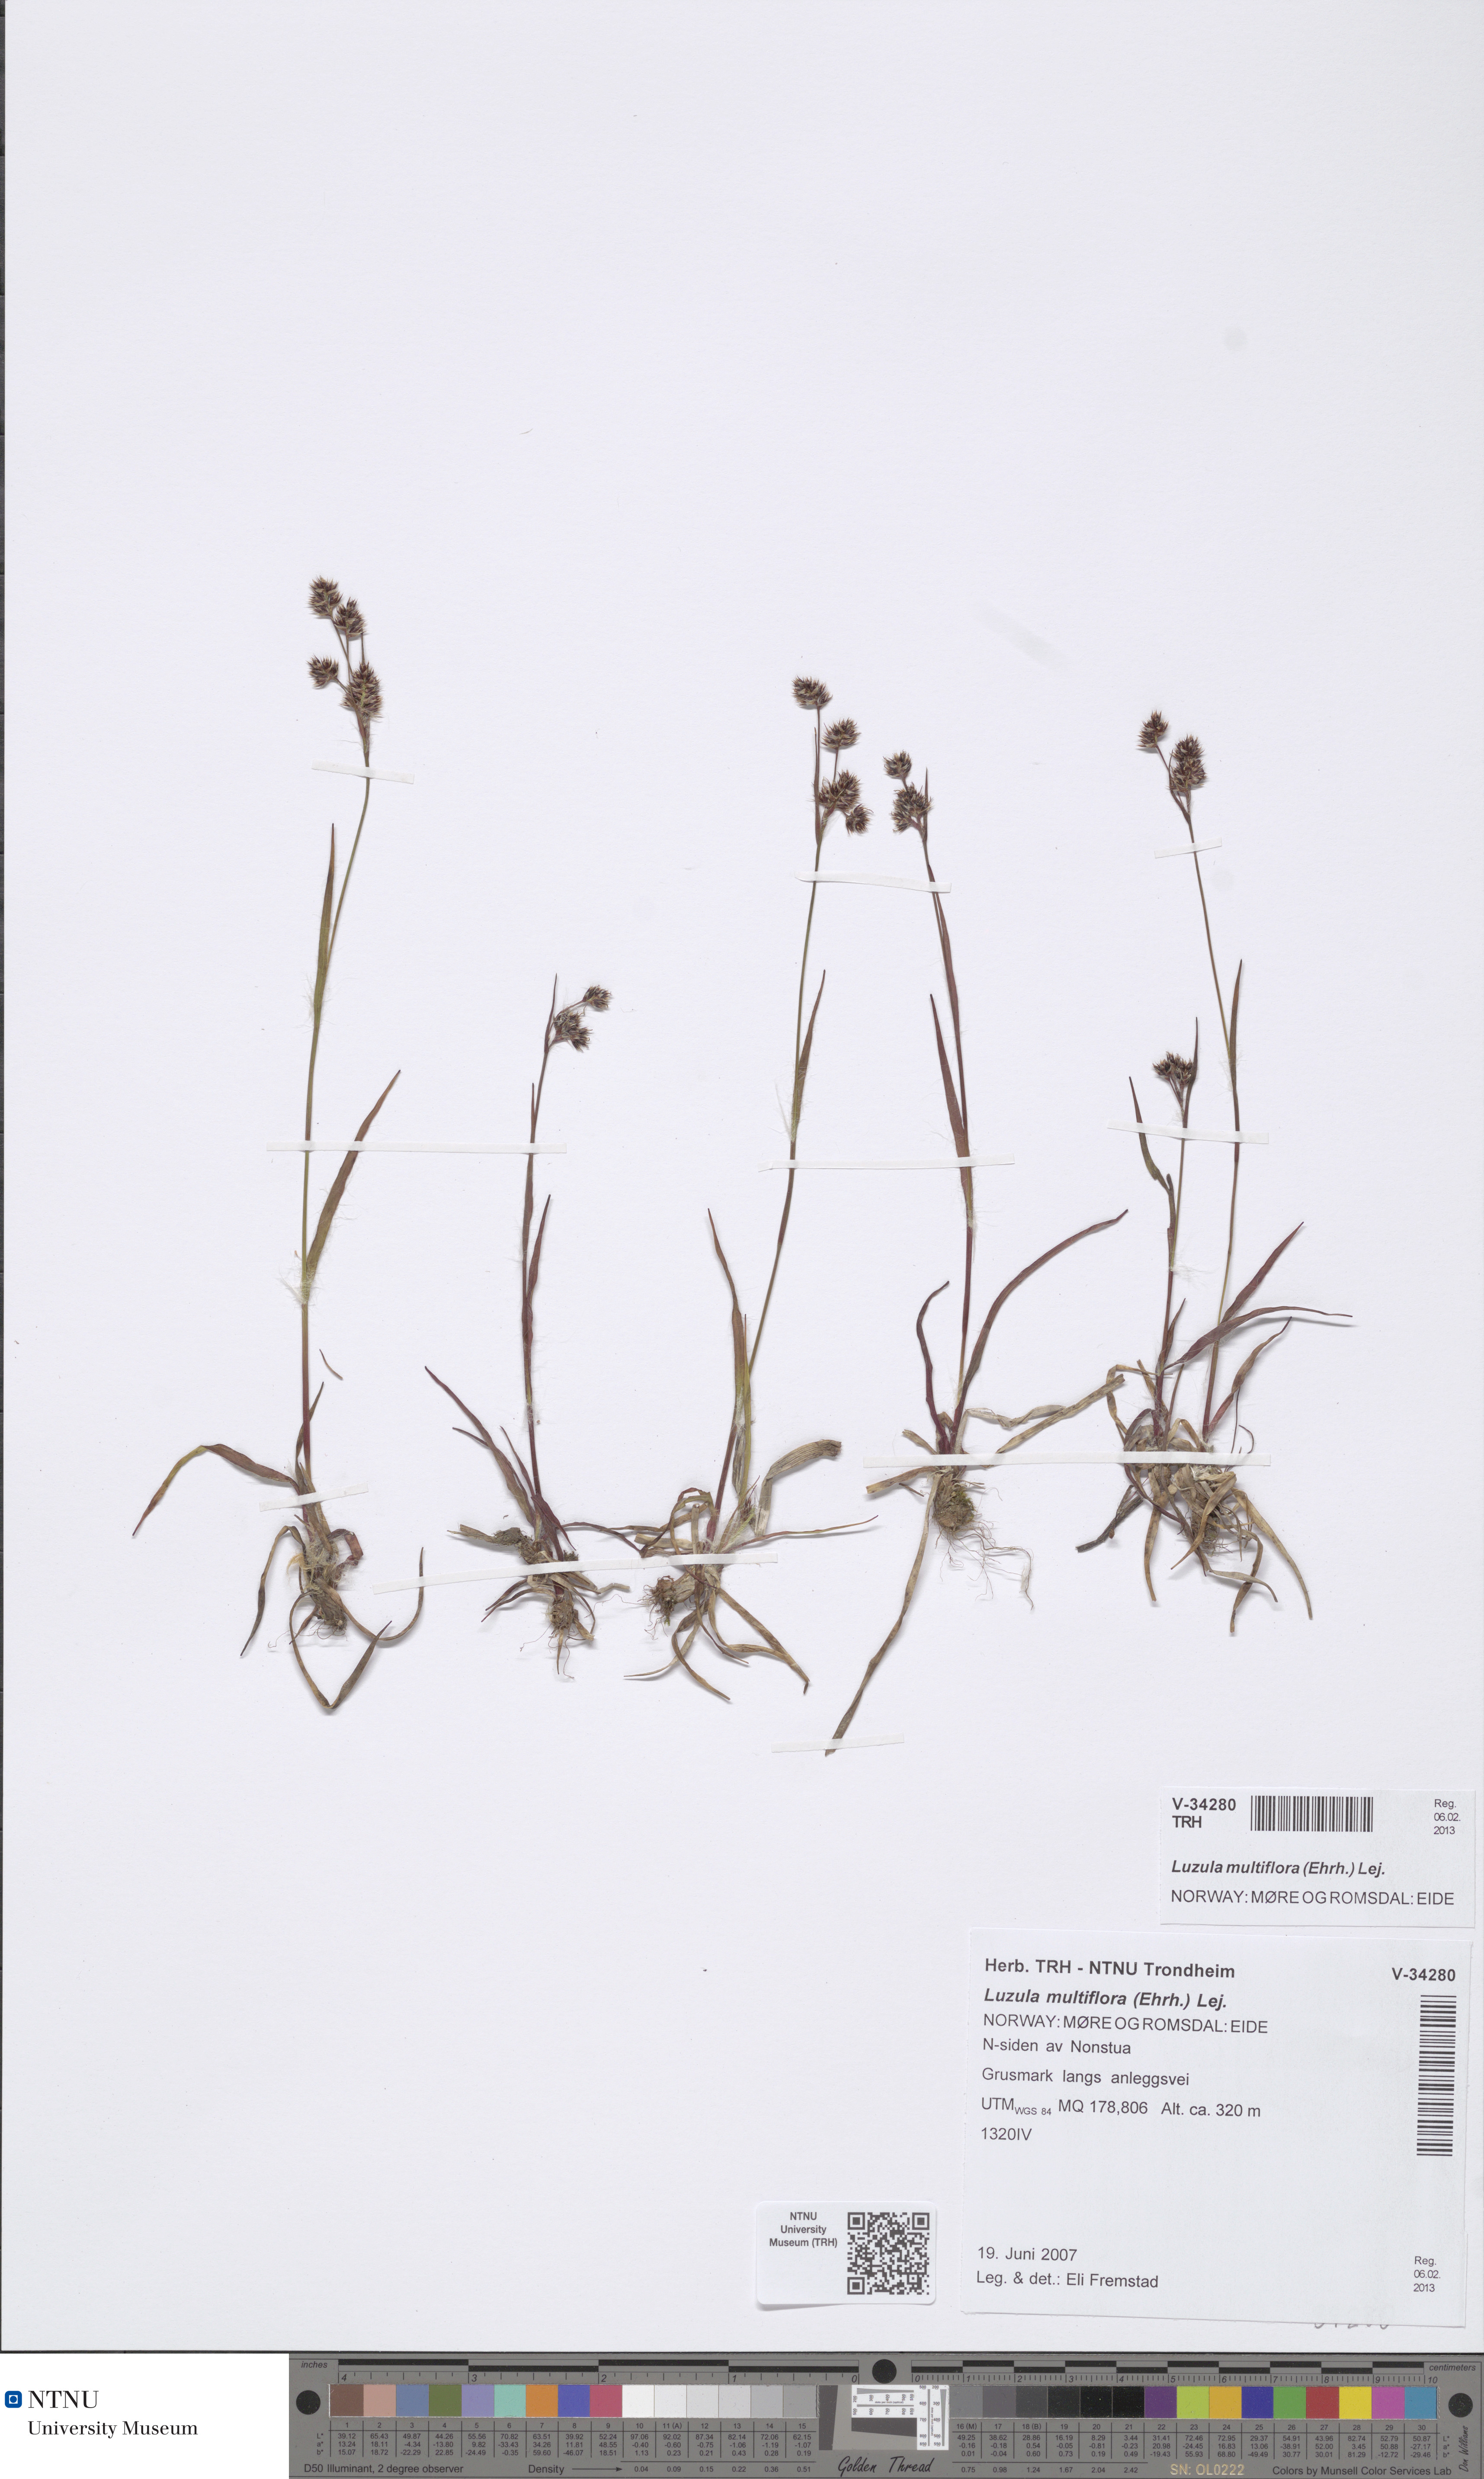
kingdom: Plantae
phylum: Tracheophyta
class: Liliopsida
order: Poales
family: Juncaceae
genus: Luzula
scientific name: Luzula multiflora
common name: Heath wood-rush
